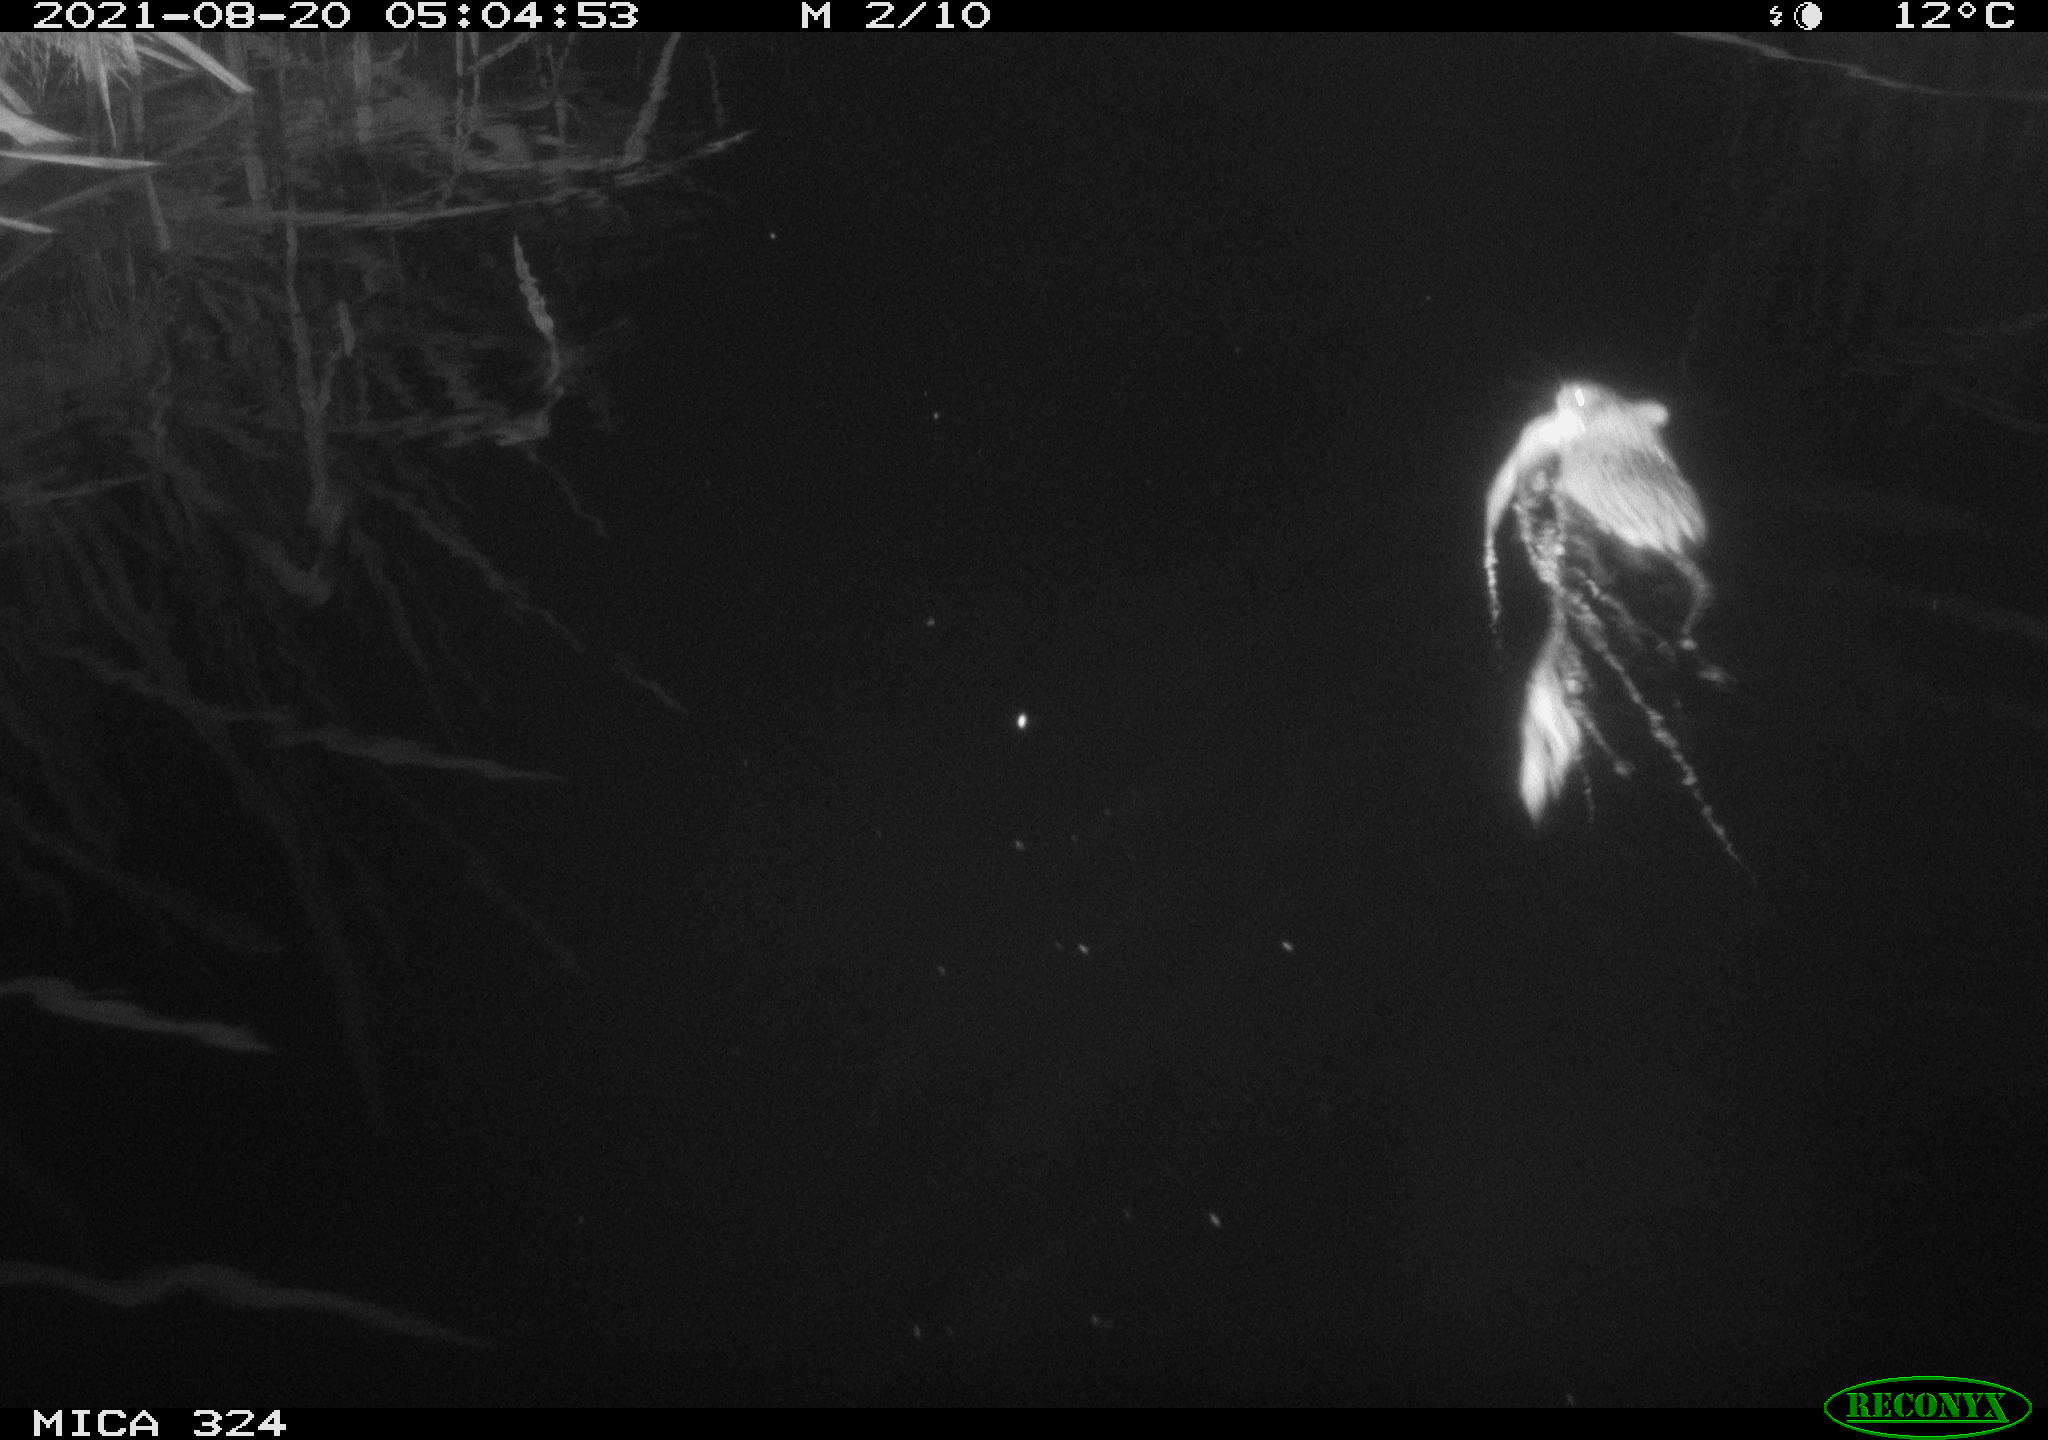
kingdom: Animalia
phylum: Chordata
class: Mammalia
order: Rodentia
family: Cricetidae
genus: Ondatra
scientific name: Ondatra zibethicus
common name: Muskrat
